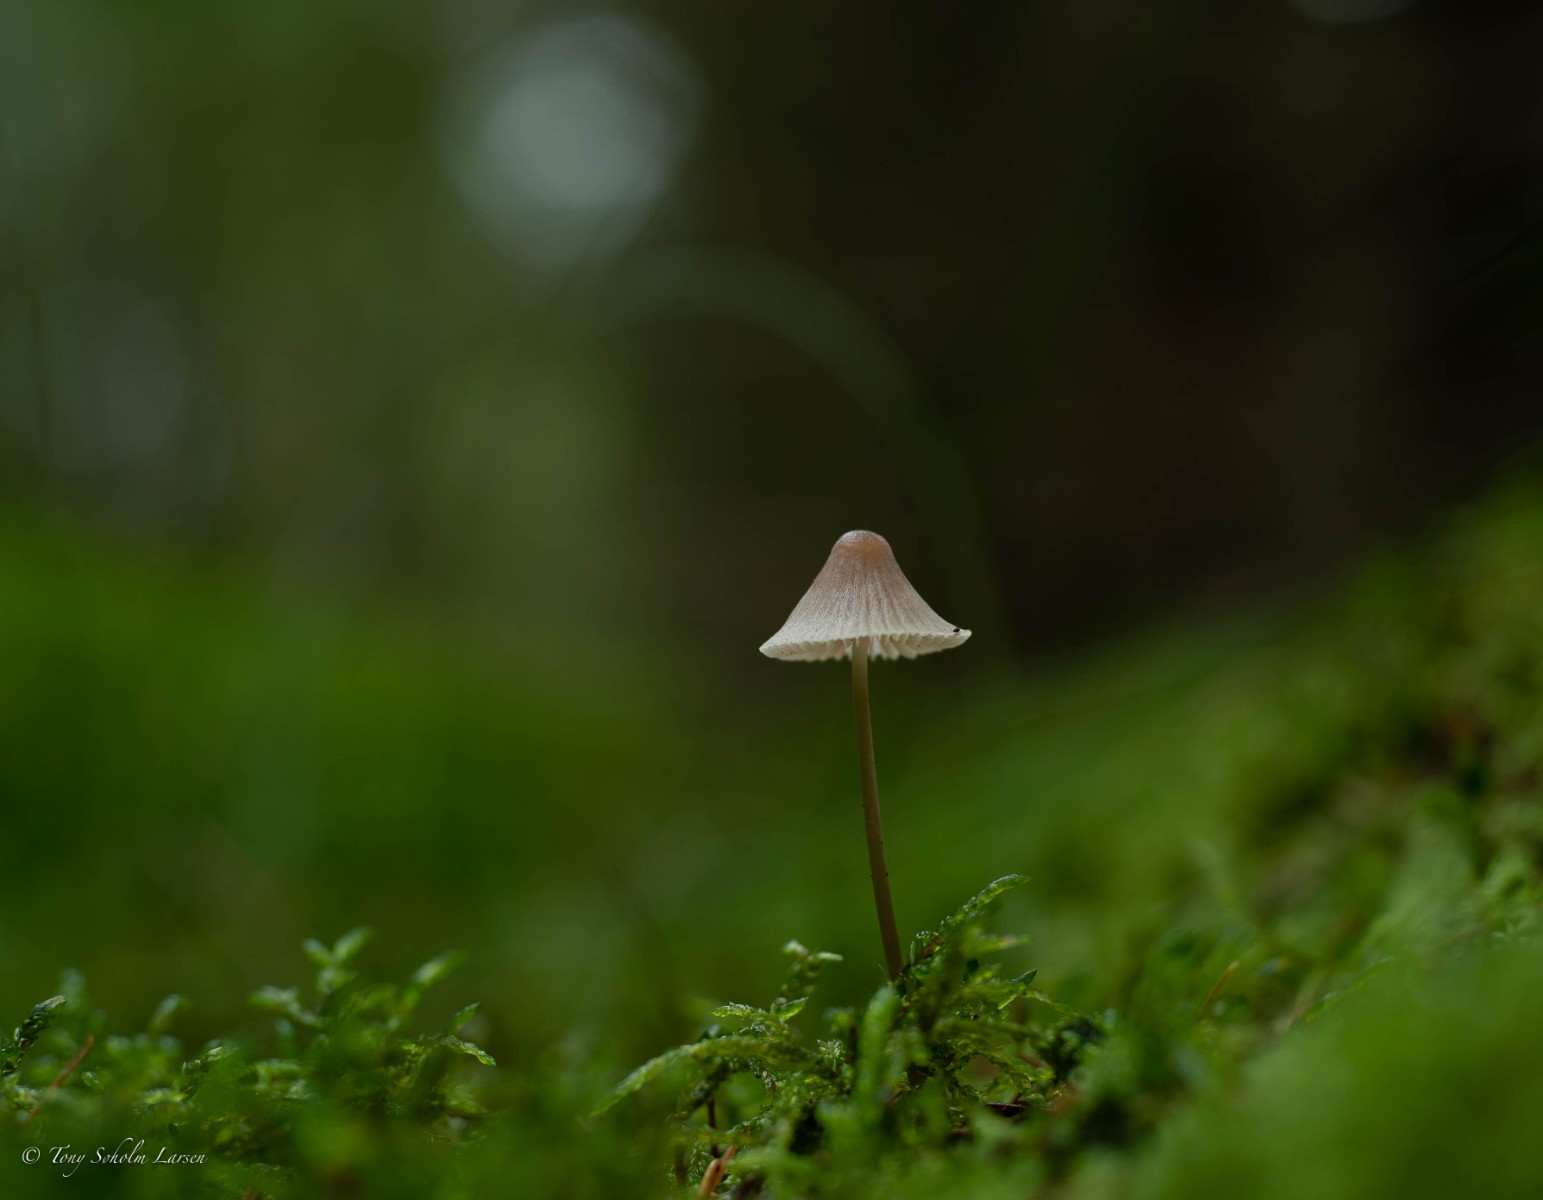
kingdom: Fungi
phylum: Basidiomycota
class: Agaricomycetes
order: Agaricales
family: Mycenaceae
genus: Mycena
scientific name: Mycena
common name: huesvamp
